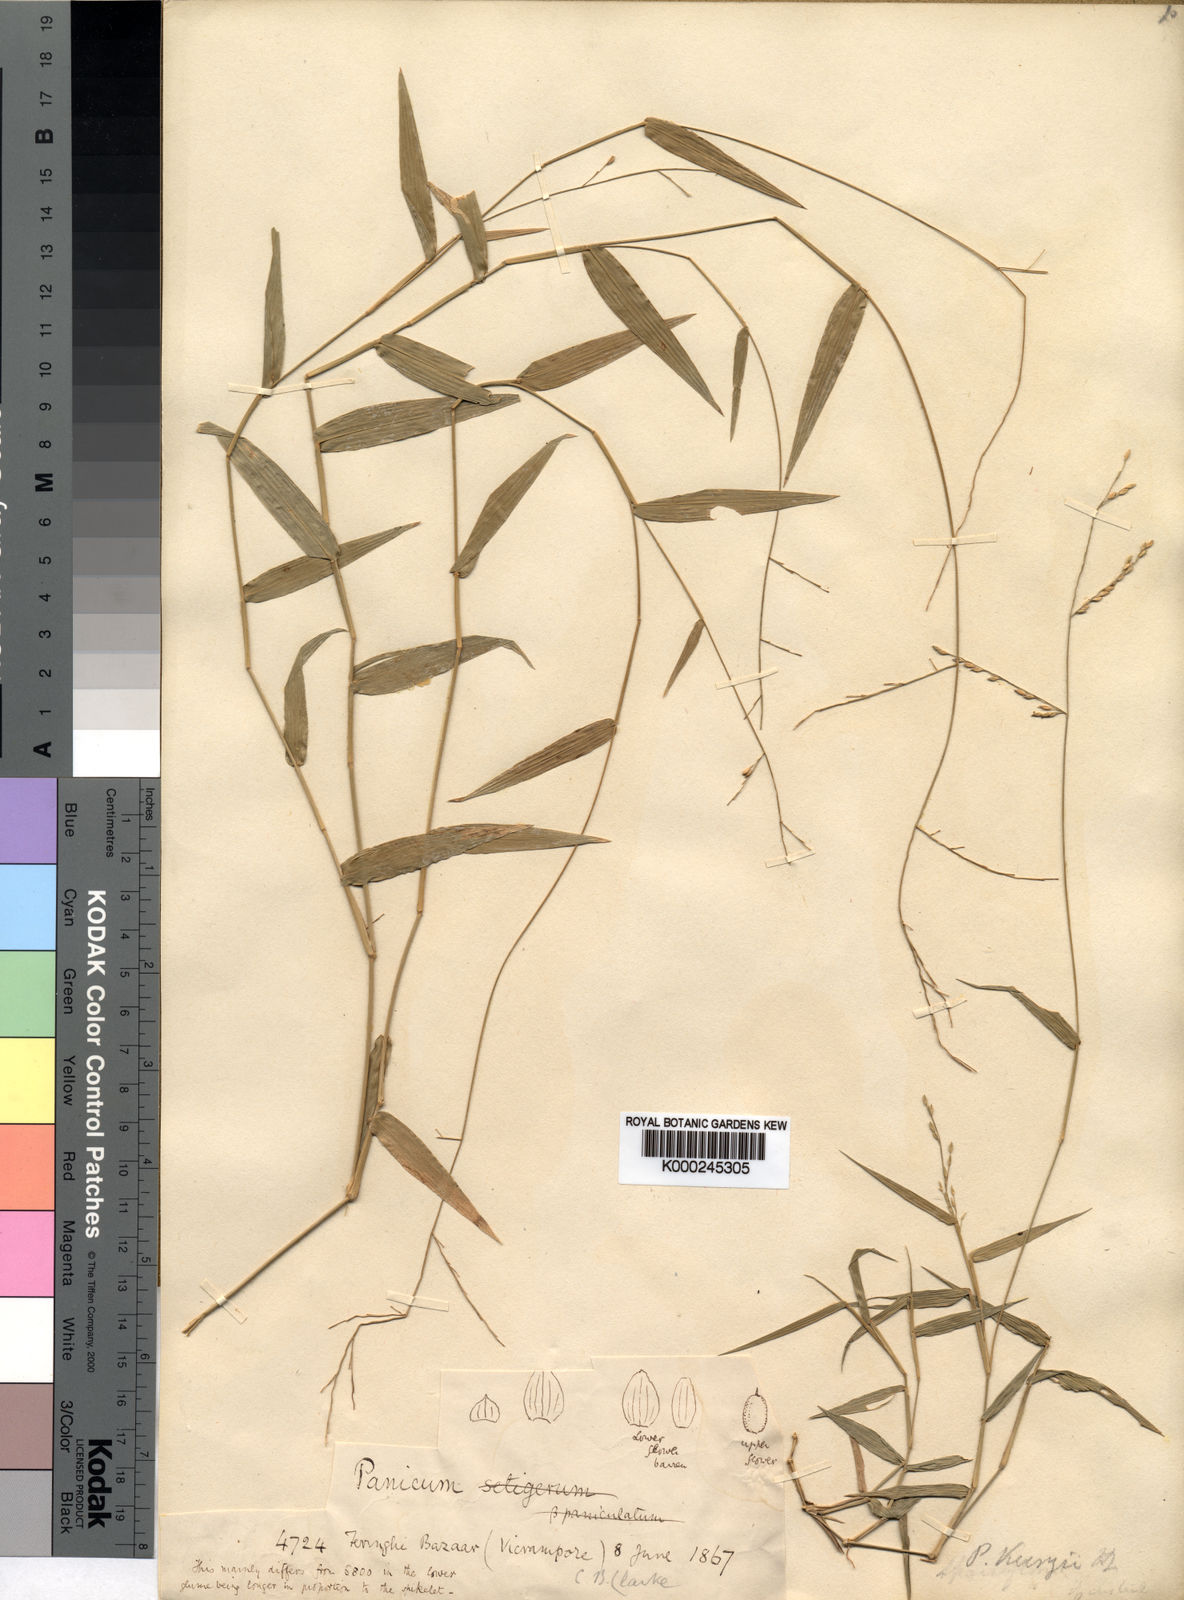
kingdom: Plantae
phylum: Tracheophyta
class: Liliopsida
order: Poales
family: Poaceae
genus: Urochloa
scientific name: Urochloa kurzii
